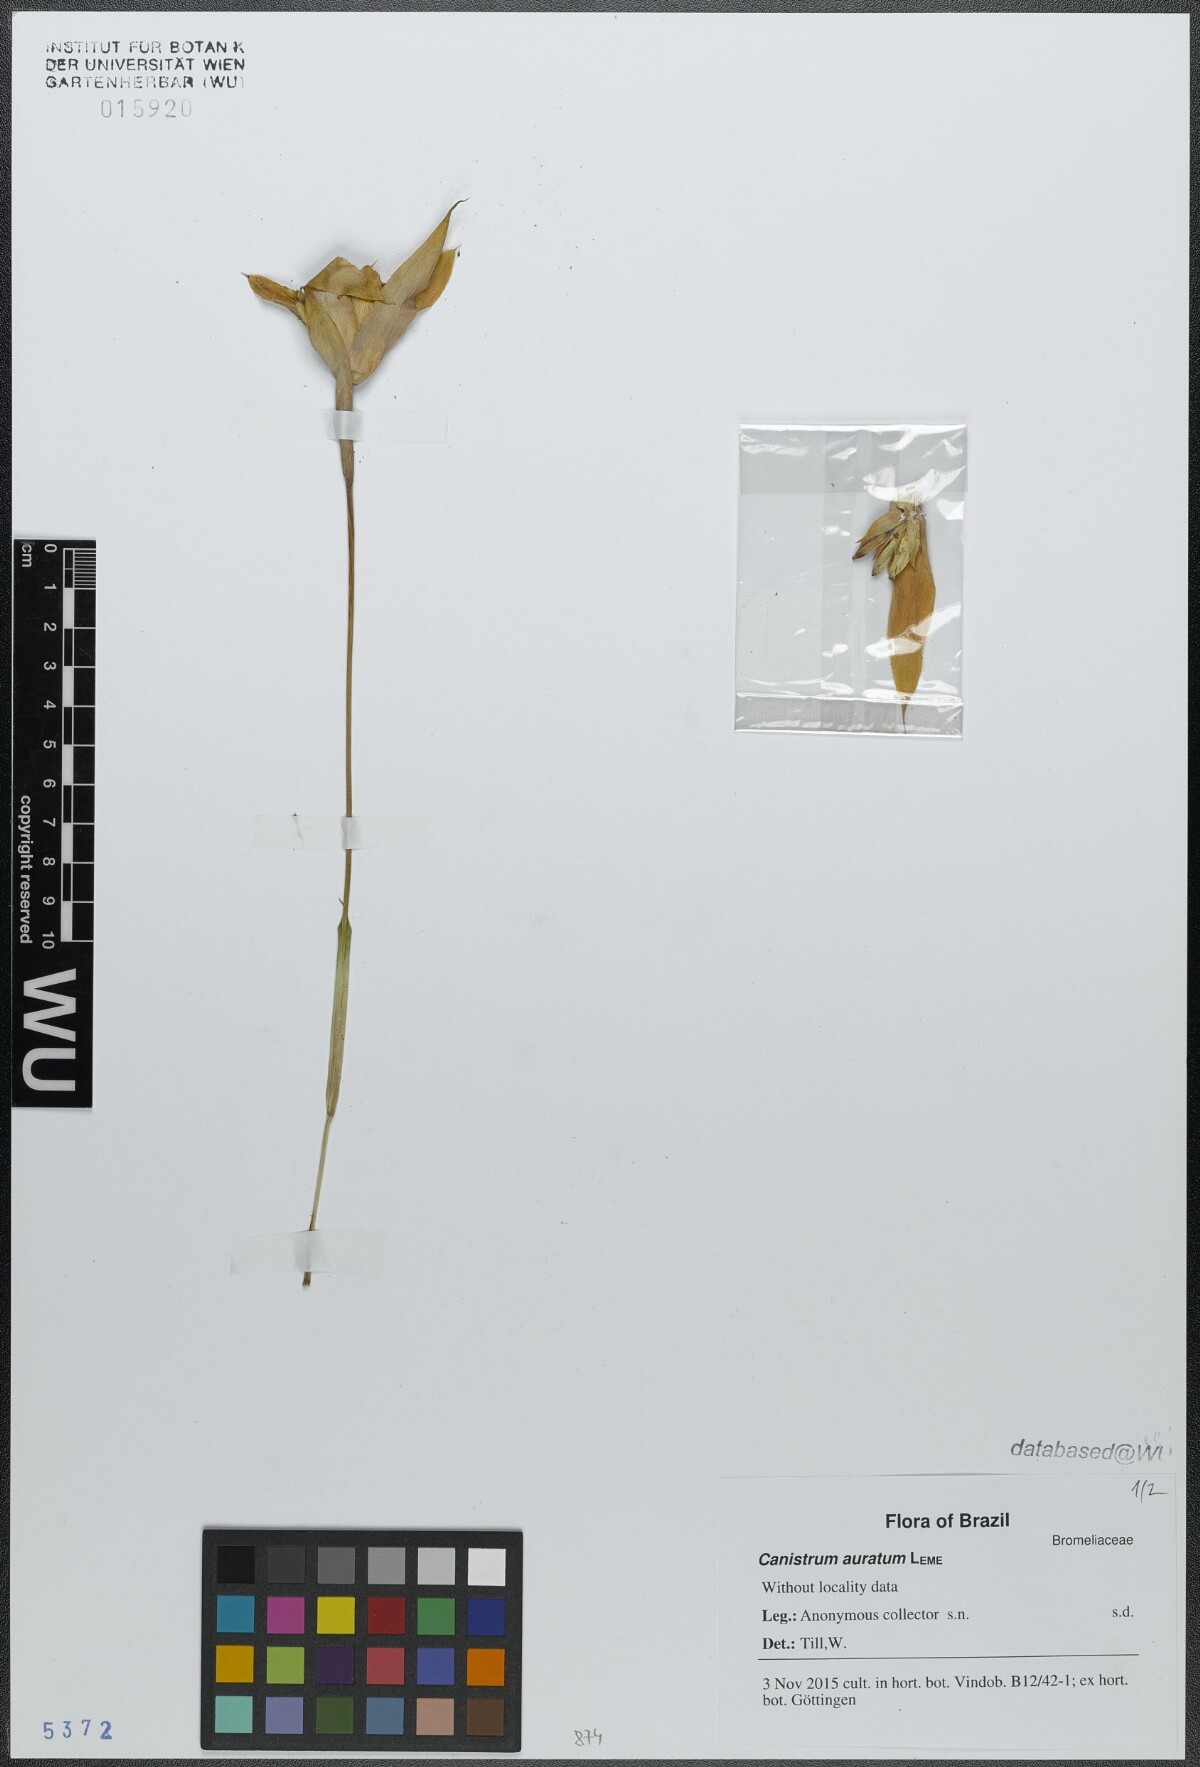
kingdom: Plantae
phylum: Tracheophyta
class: Liliopsida
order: Poales
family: Bromeliaceae
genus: Canistrum
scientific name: Canistrum auratum
